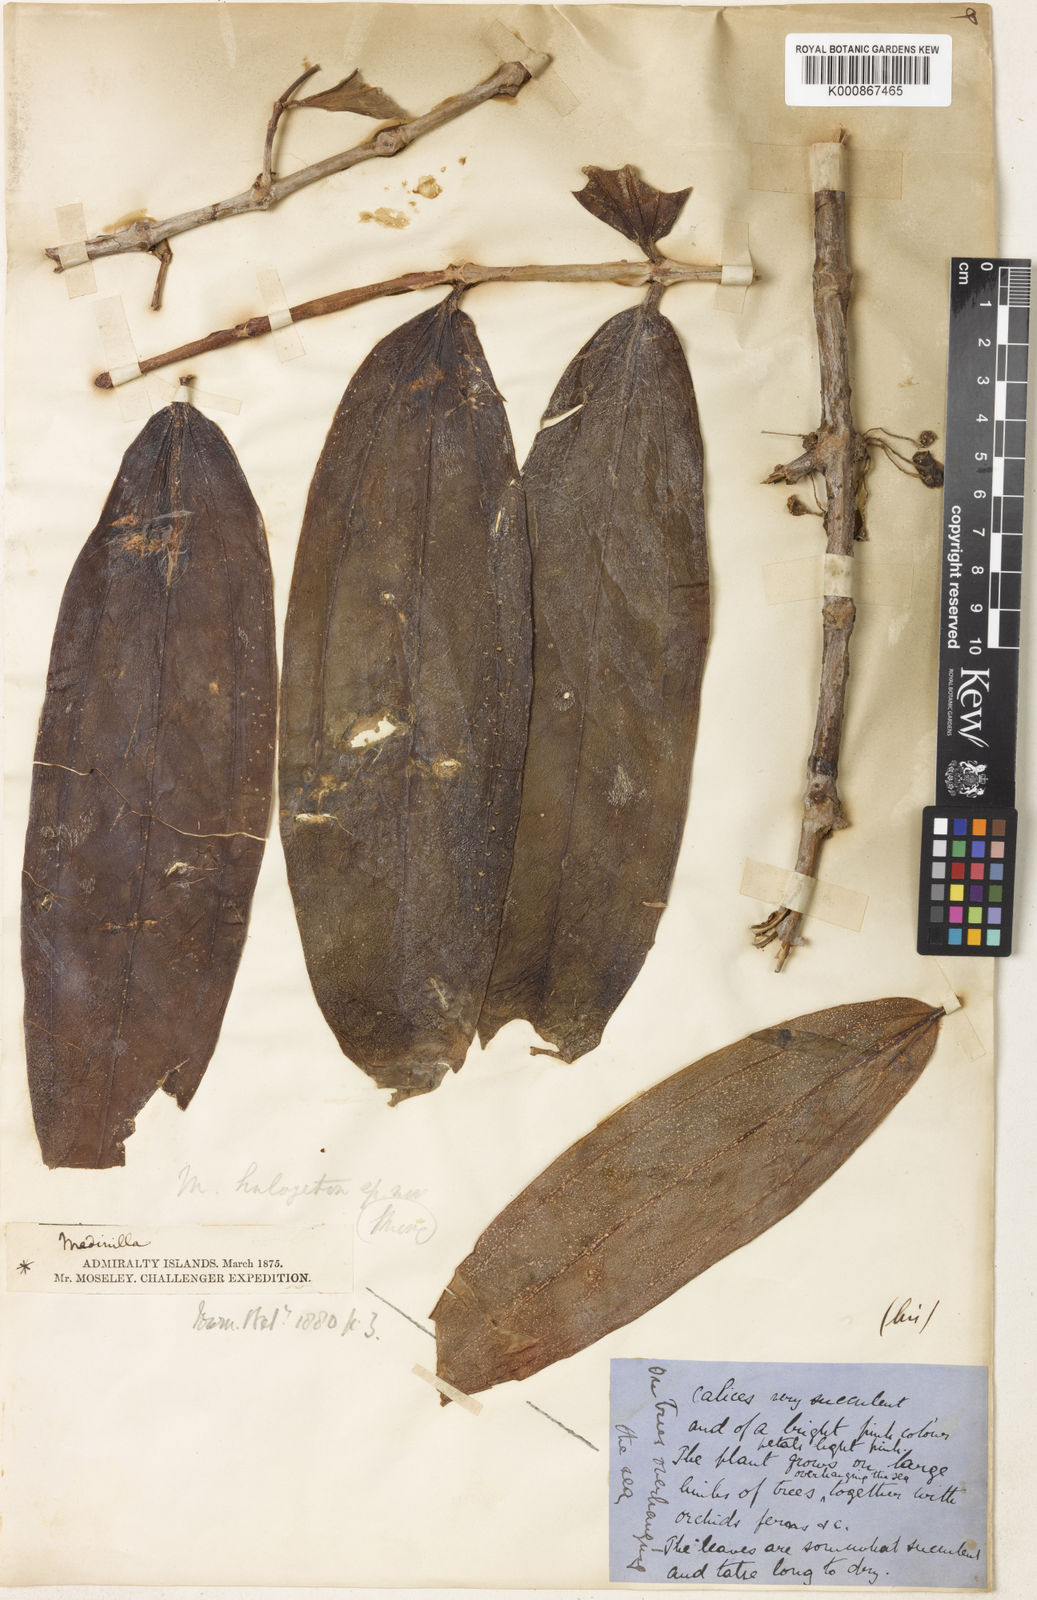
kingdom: Plantae
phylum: Tracheophyta
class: Magnoliopsida
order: Myrtales
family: Melastomataceae
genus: Medinilla
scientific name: Medinilla halogeton
